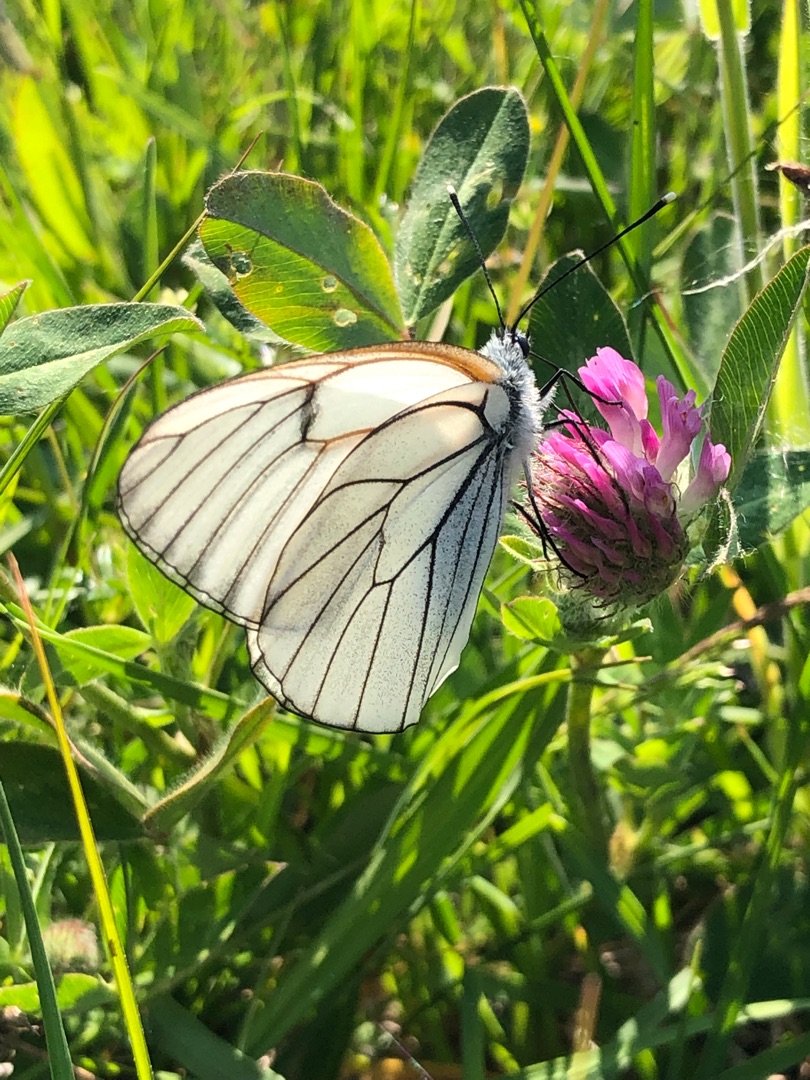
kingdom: Animalia
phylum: Arthropoda
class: Insecta
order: Lepidoptera
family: Pieridae
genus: Aporia
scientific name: Aporia crataegi
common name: Sortåret hvidvinge
